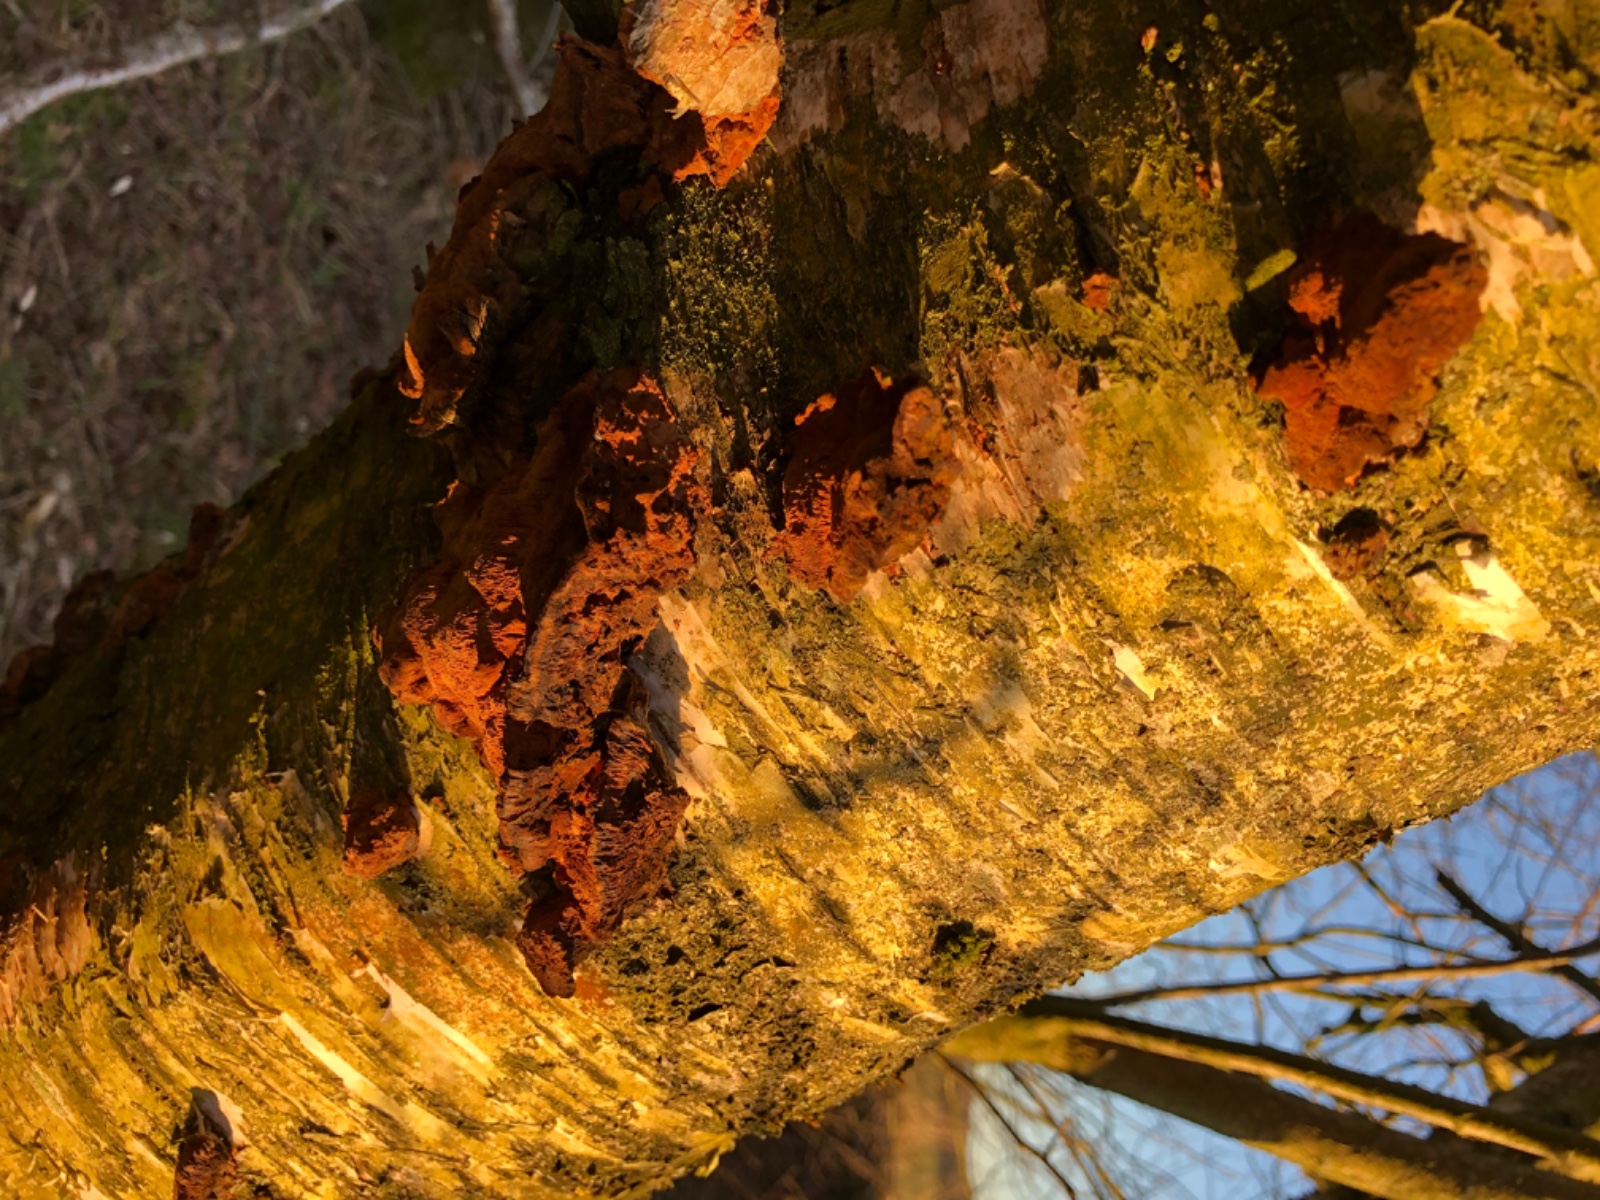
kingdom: Fungi
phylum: Basidiomycota
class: Agaricomycetes
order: Hymenochaetales
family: Hymenochaetaceae
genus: Xanthoporia
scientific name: Xanthoporia radiata
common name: elle-spejlporesvamp
